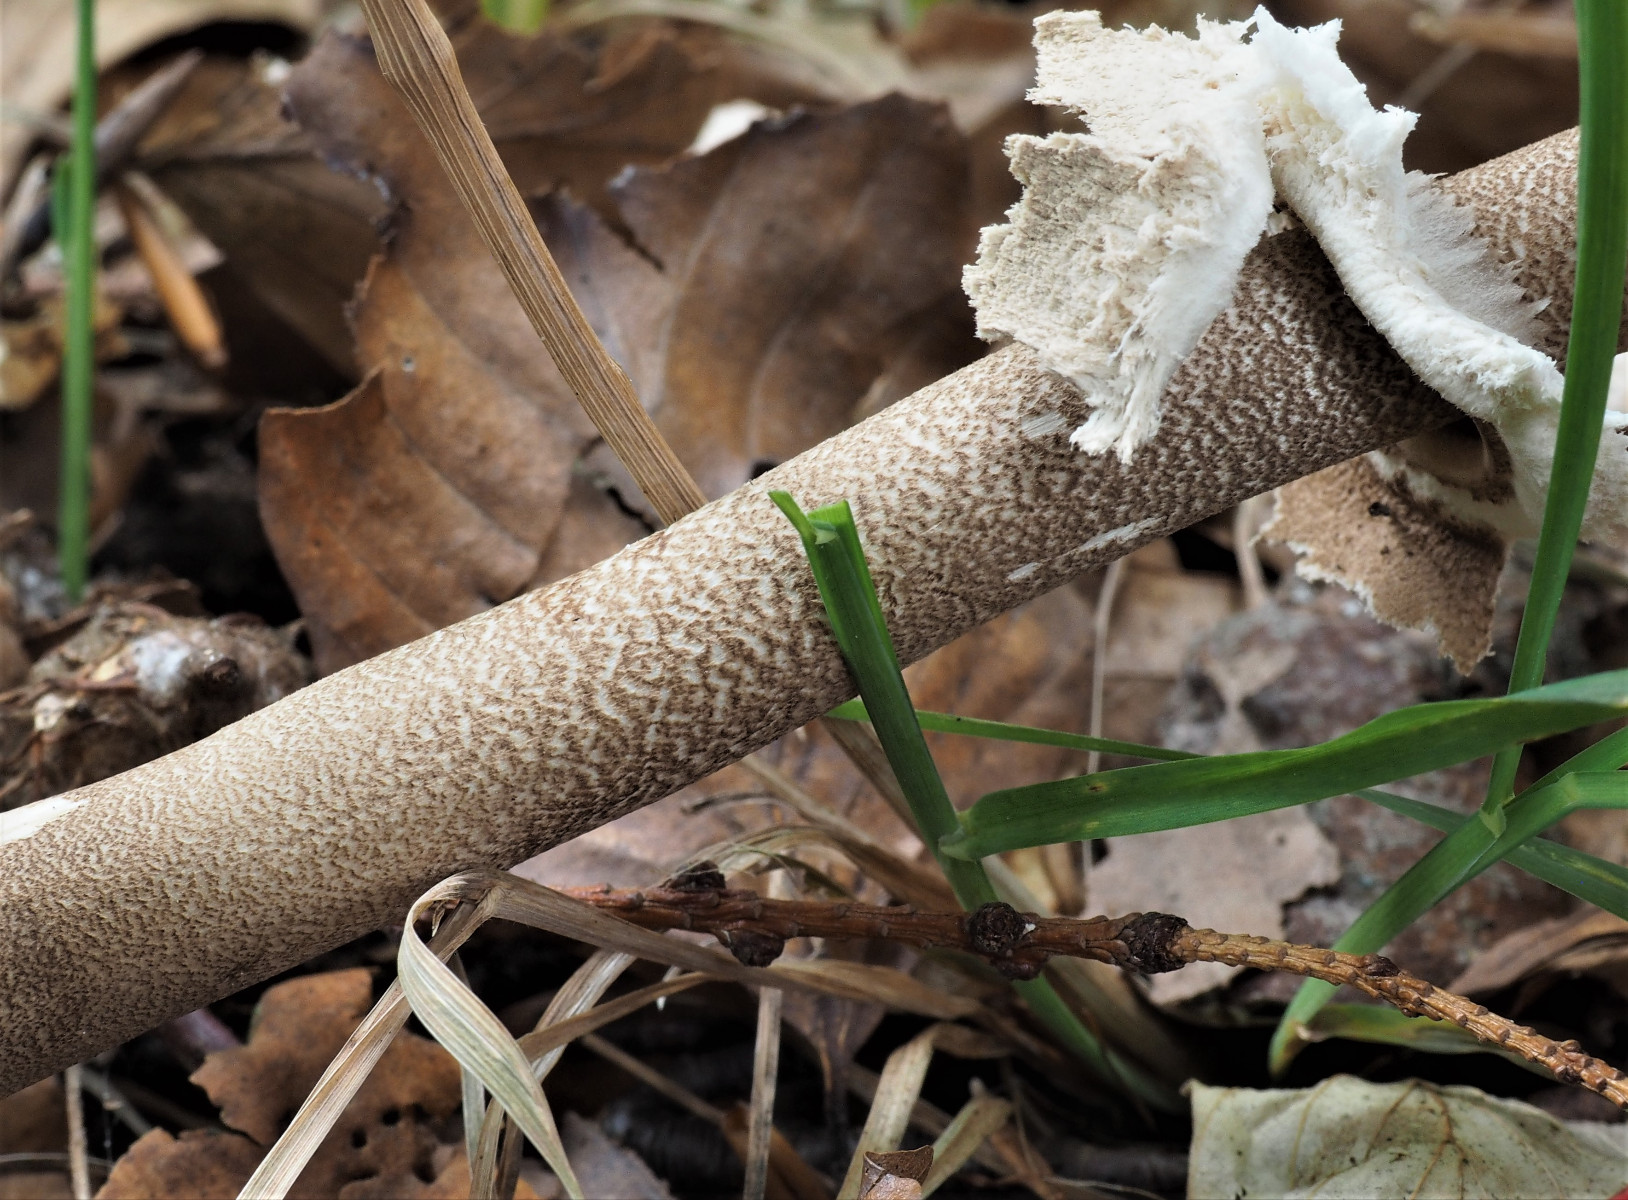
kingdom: Fungi
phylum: Basidiomycota
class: Agaricomycetes
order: Agaricales
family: Agaricaceae
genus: Macrolepiota
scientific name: Macrolepiota
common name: kæmpeparasolhat
